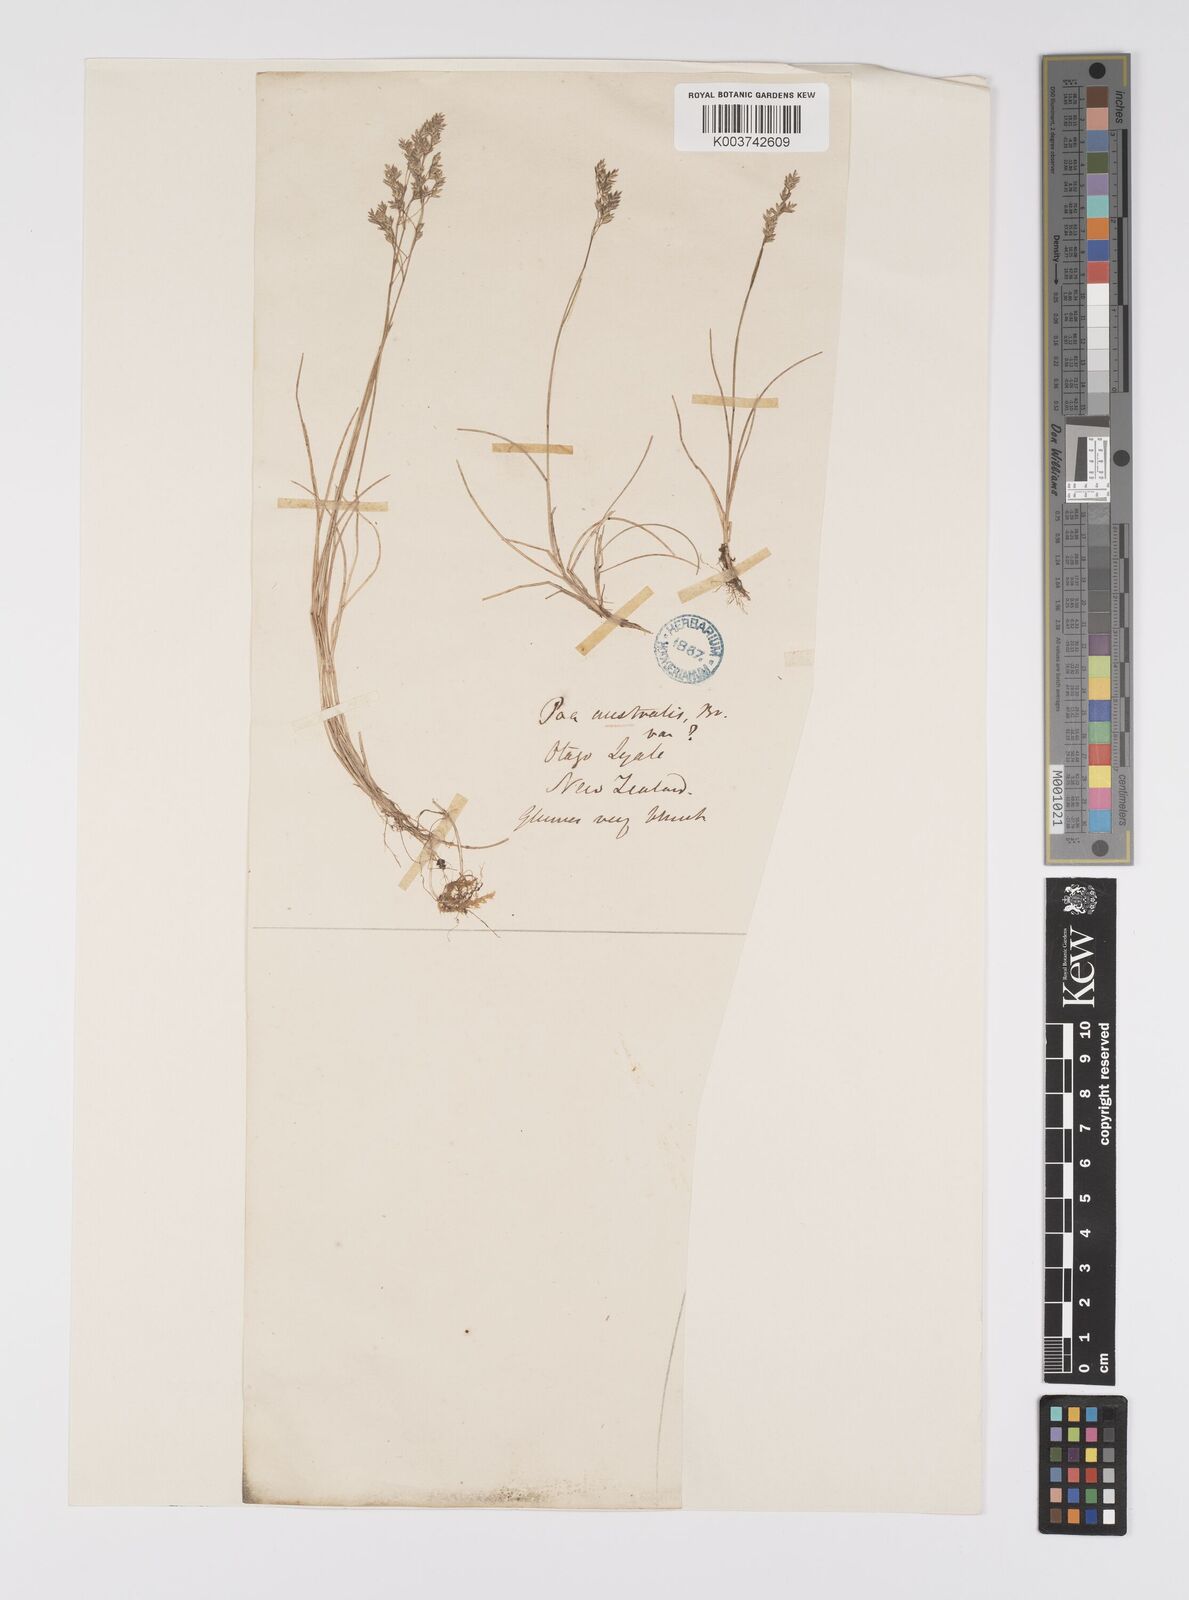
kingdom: Plantae
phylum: Tracheophyta
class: Liliopsida
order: Poales
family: Poaceae
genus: Poa
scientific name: Poa pusilla
